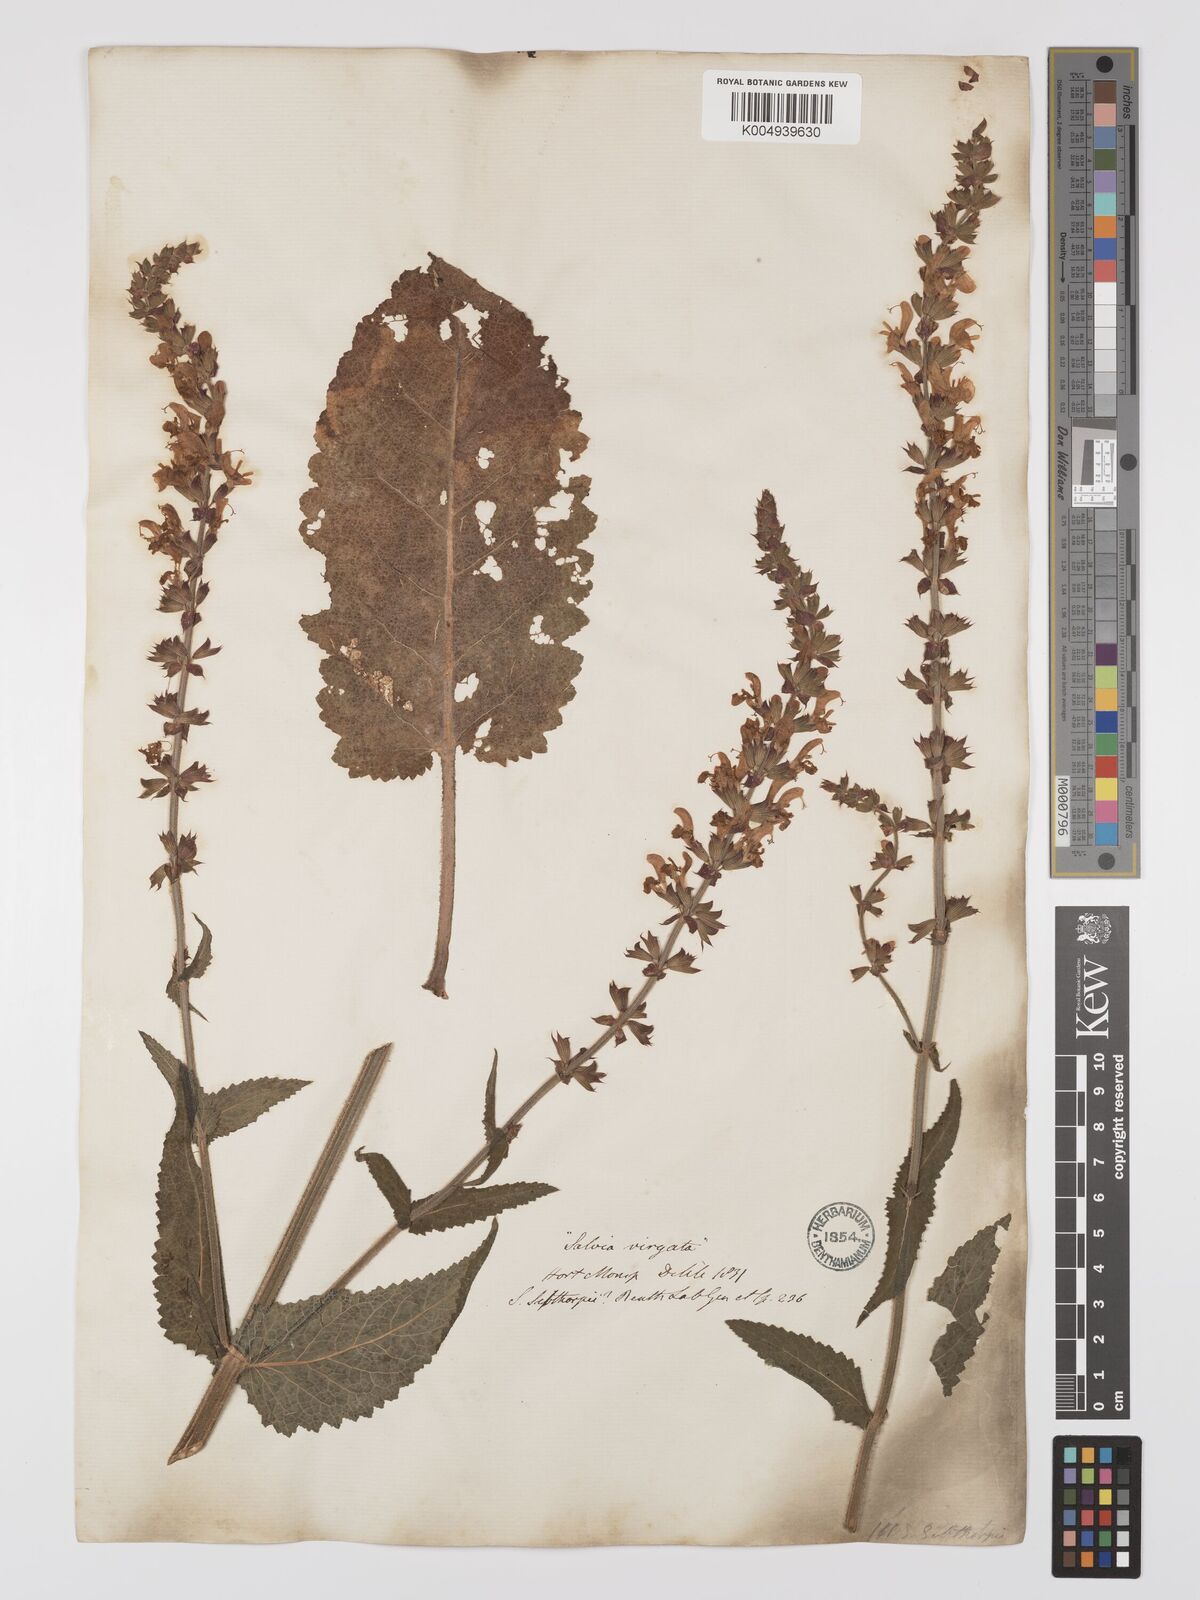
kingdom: Plantae
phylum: Tracheophyta
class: Magnoliopsida
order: Lamiales
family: Lamiaceae
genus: Salvia
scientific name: Salvia
